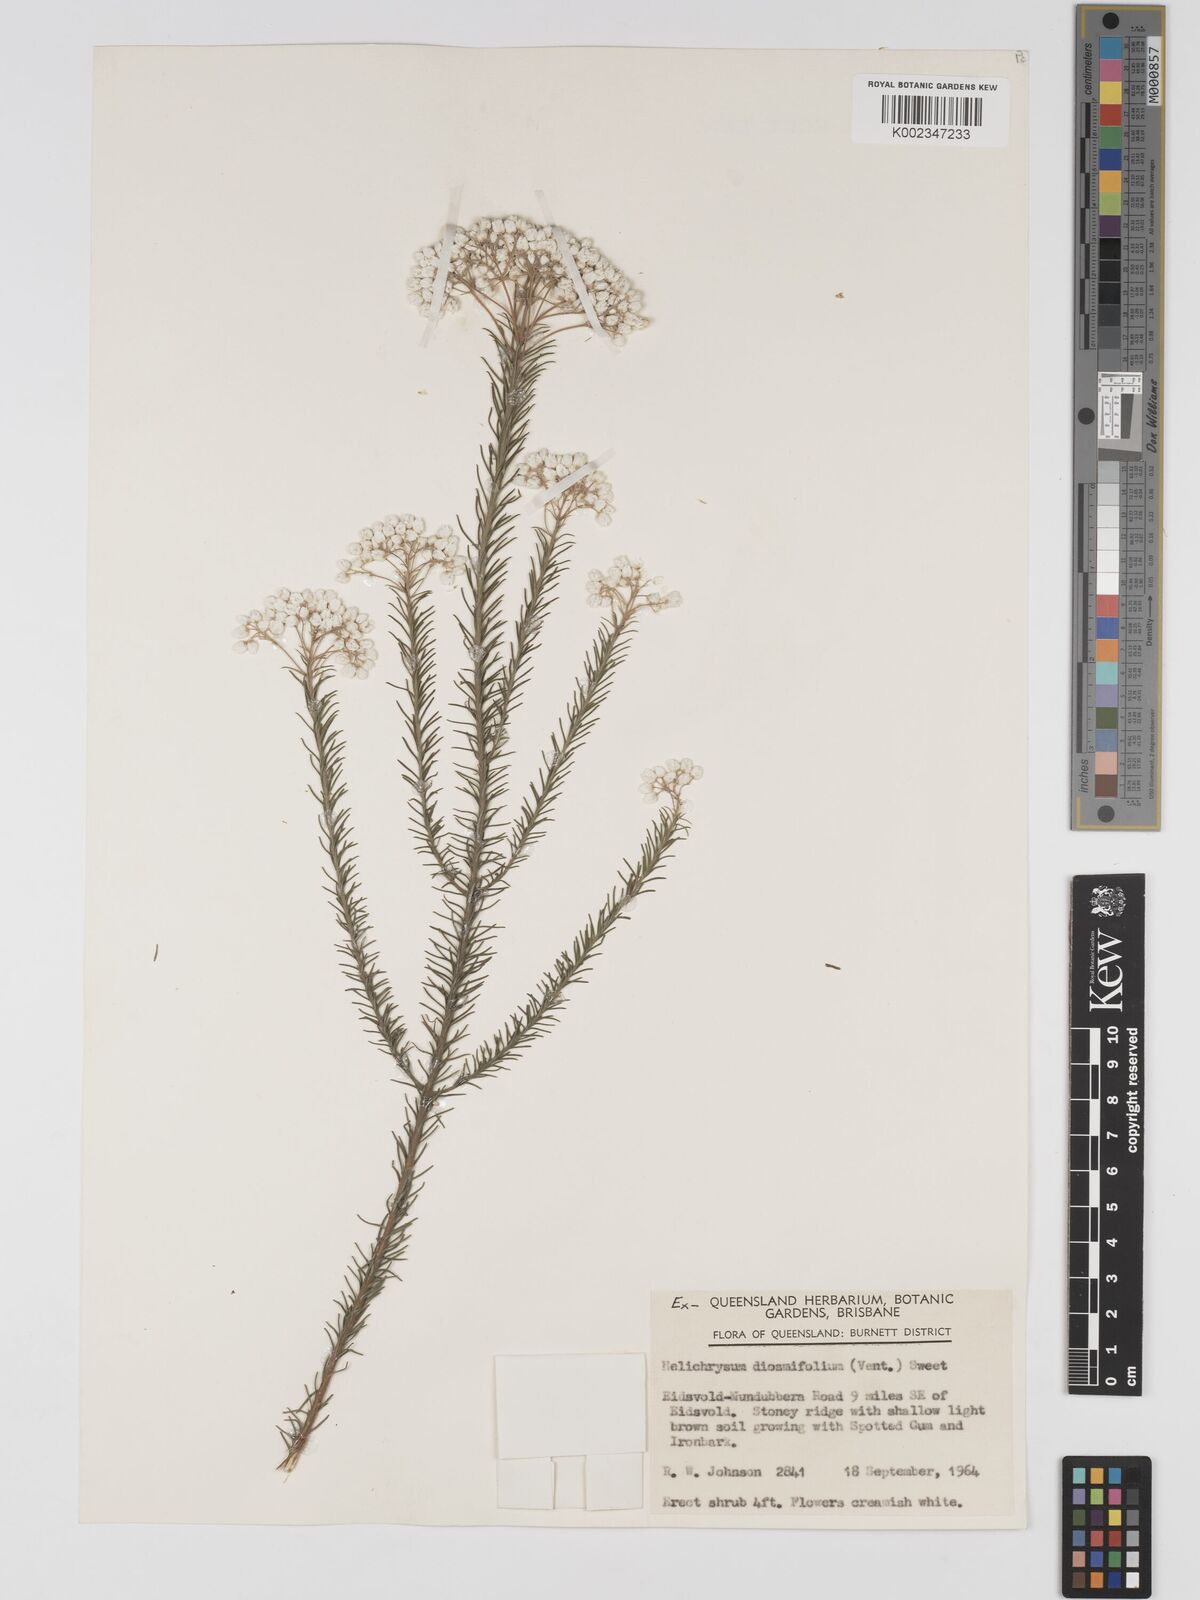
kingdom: Plantae
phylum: Tracheophyta
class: Magnoliopsida
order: Asterales
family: Asteraceae
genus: Ozothamnus
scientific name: Ozothamnus diosmifolius
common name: White-dogwood
